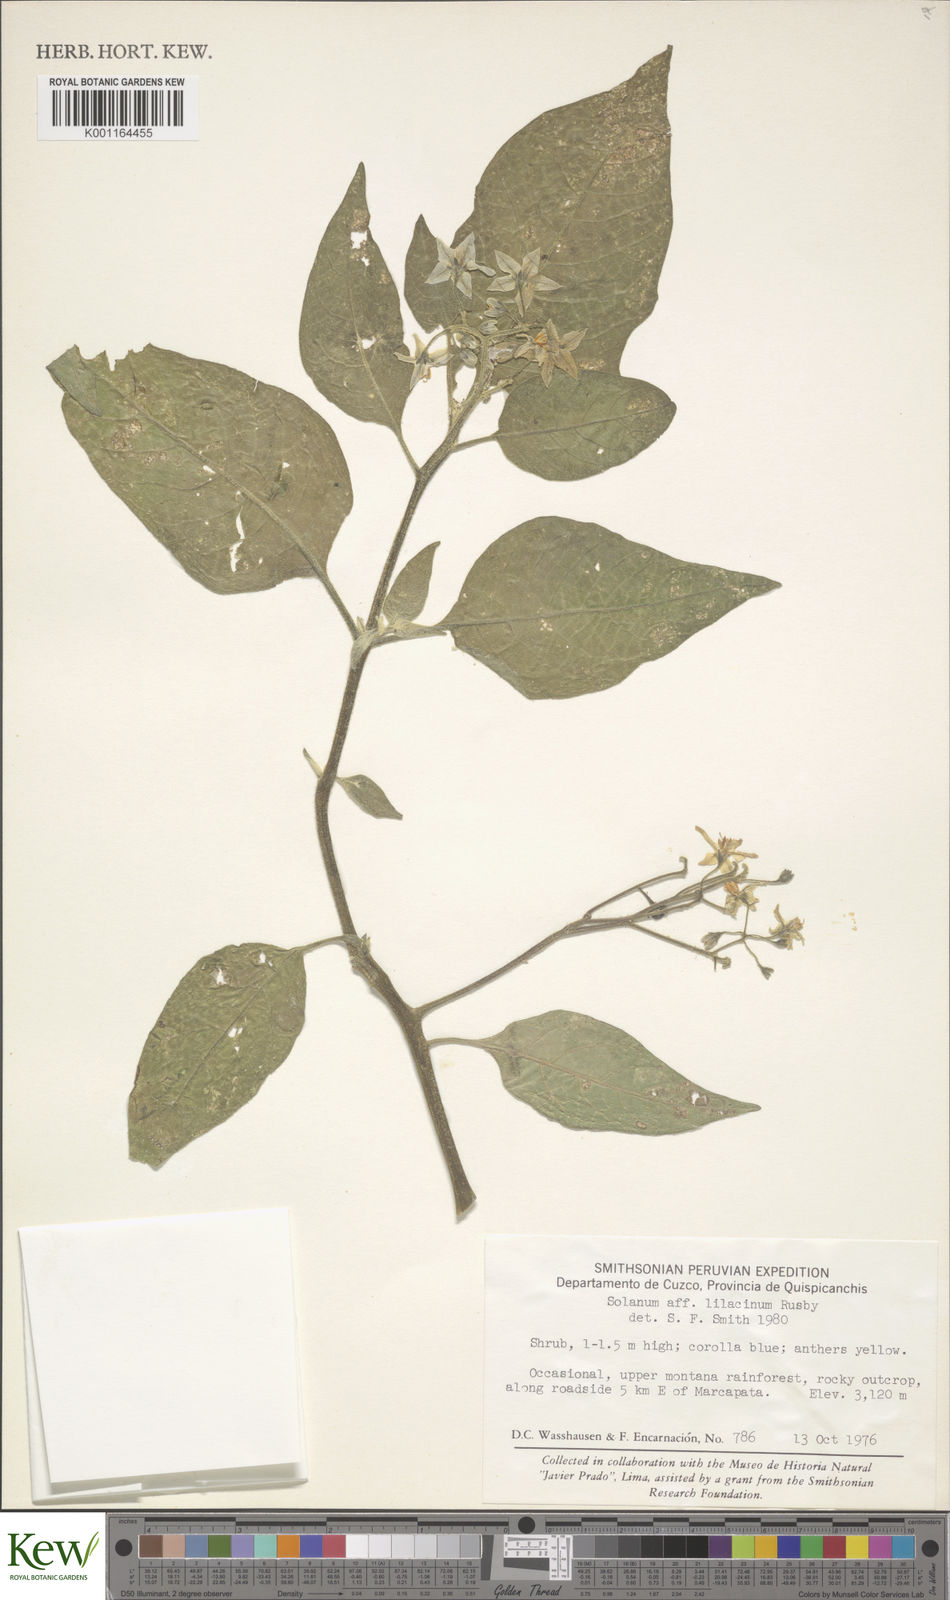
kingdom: Plantae
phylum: Tracheophyta
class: Magnoliopsida
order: Solanales
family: Solanaceae
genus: Solanum
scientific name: Solanum pallidum
